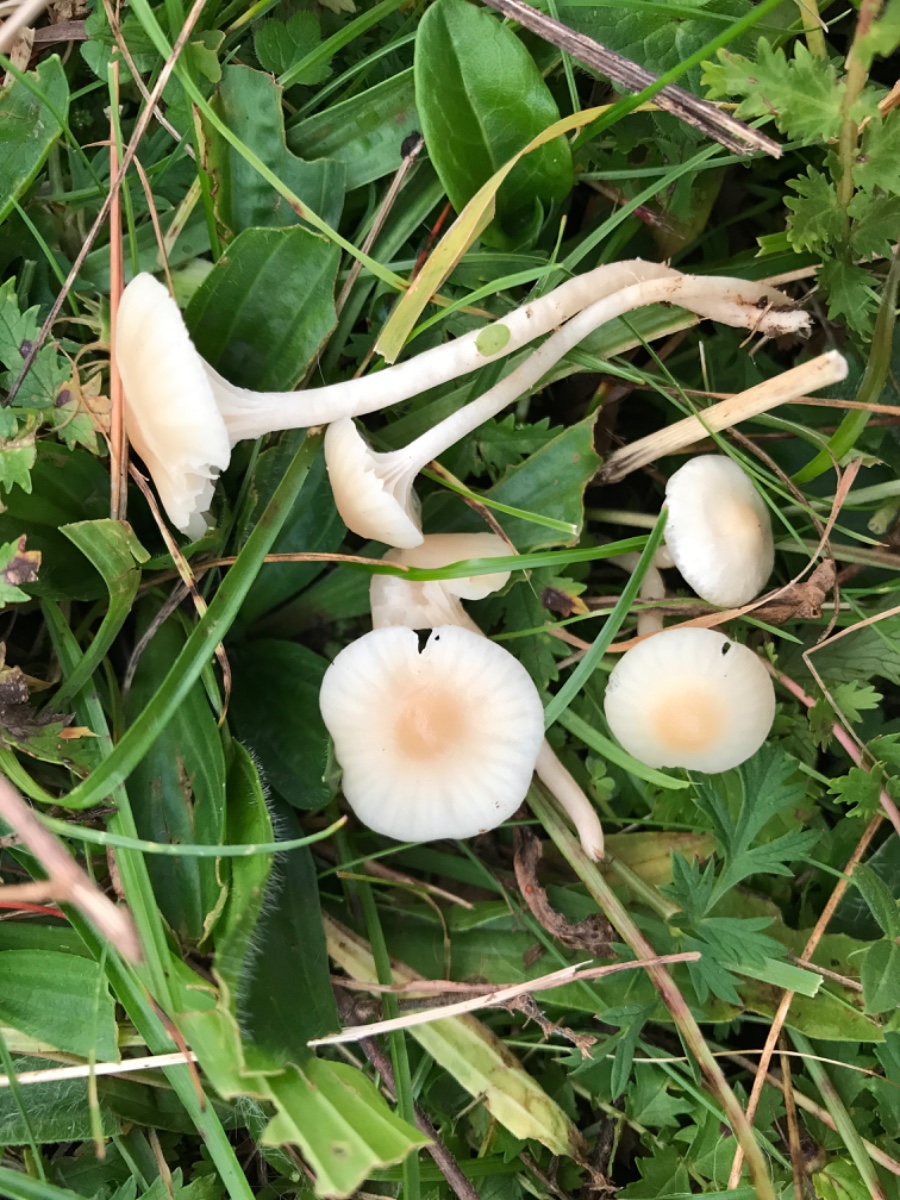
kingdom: Fungi
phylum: Basidiomycota
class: Agaricomycetes
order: Agaricales
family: Hygrophoraceae
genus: Cuphophyllus
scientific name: Cuphophyllus virgineus
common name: brunøjet vokshat
